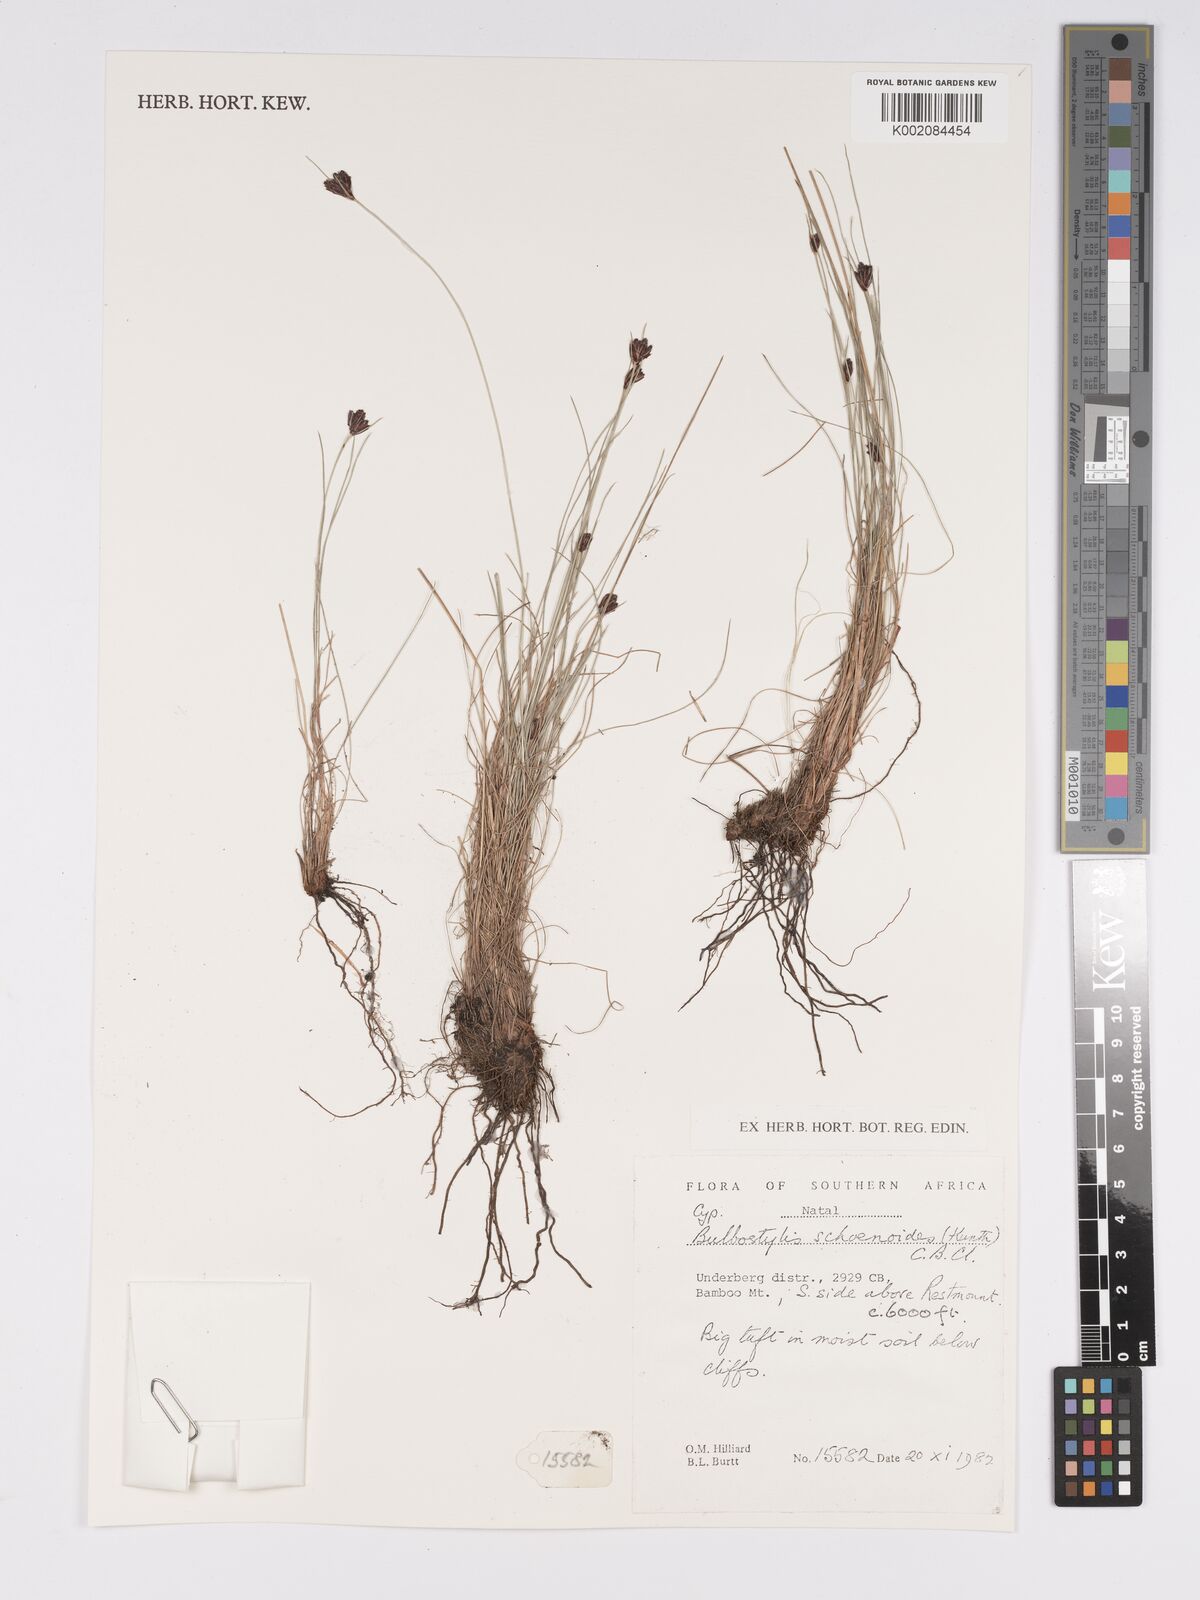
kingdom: Plantae
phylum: Tracheophyta
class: Liliopsida
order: Poales
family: Cyperaceae
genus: Bulbostylis
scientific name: Bulbostylis schoenoides
